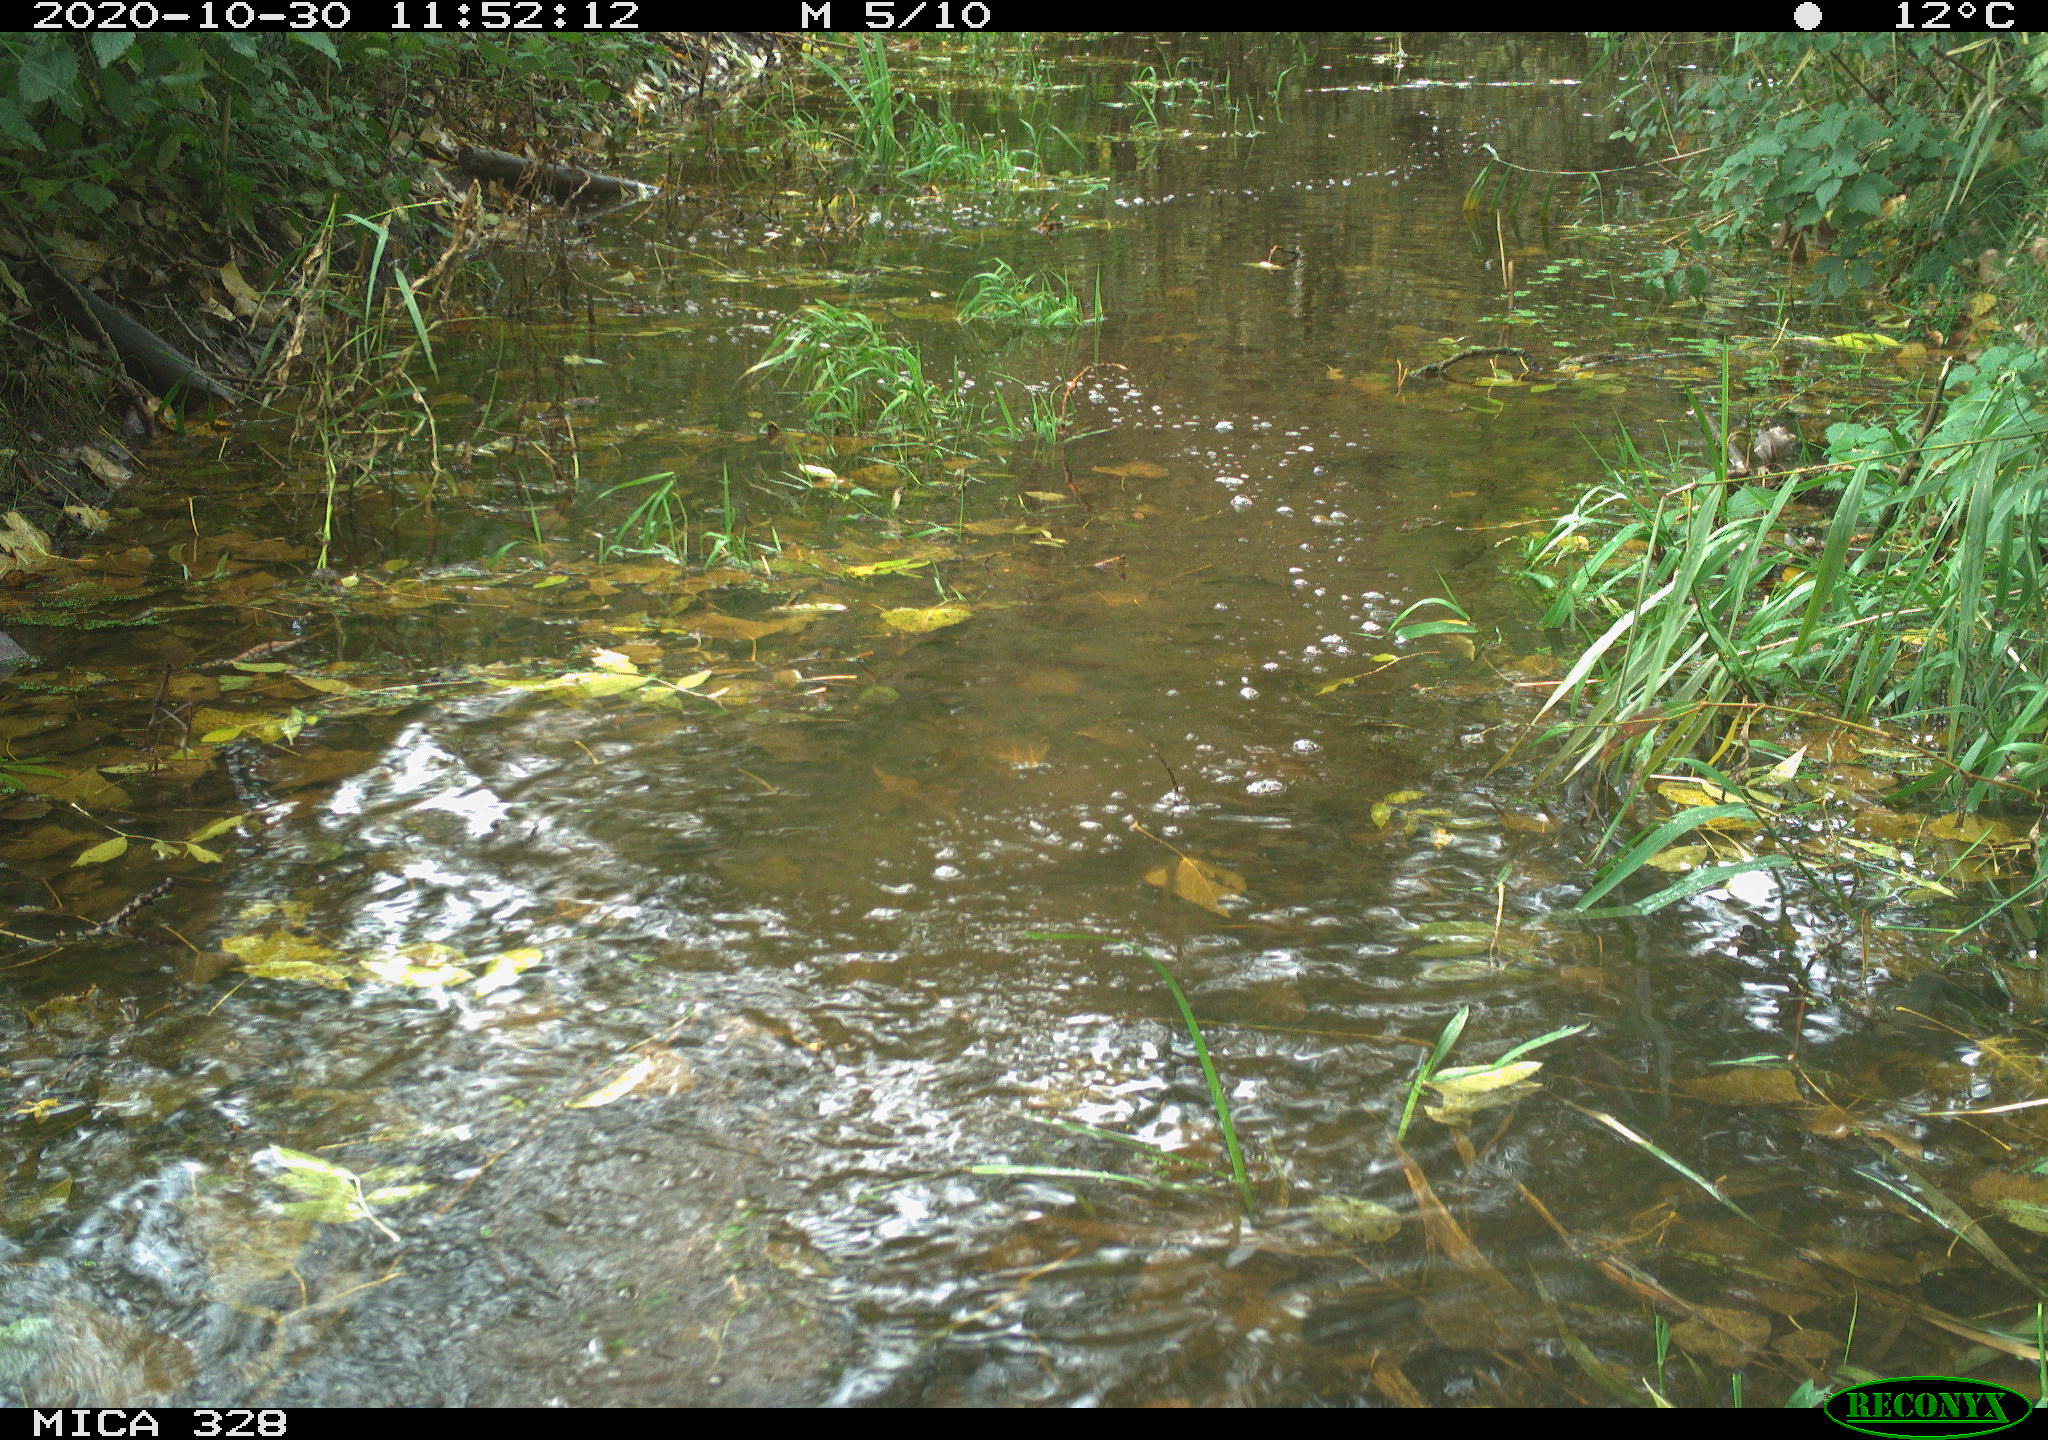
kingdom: Animalia
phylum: Chordata
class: Mammalia
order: Rodentia
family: Myocastoridae
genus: Myocastor
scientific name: Myocastor coypus
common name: Coypu
